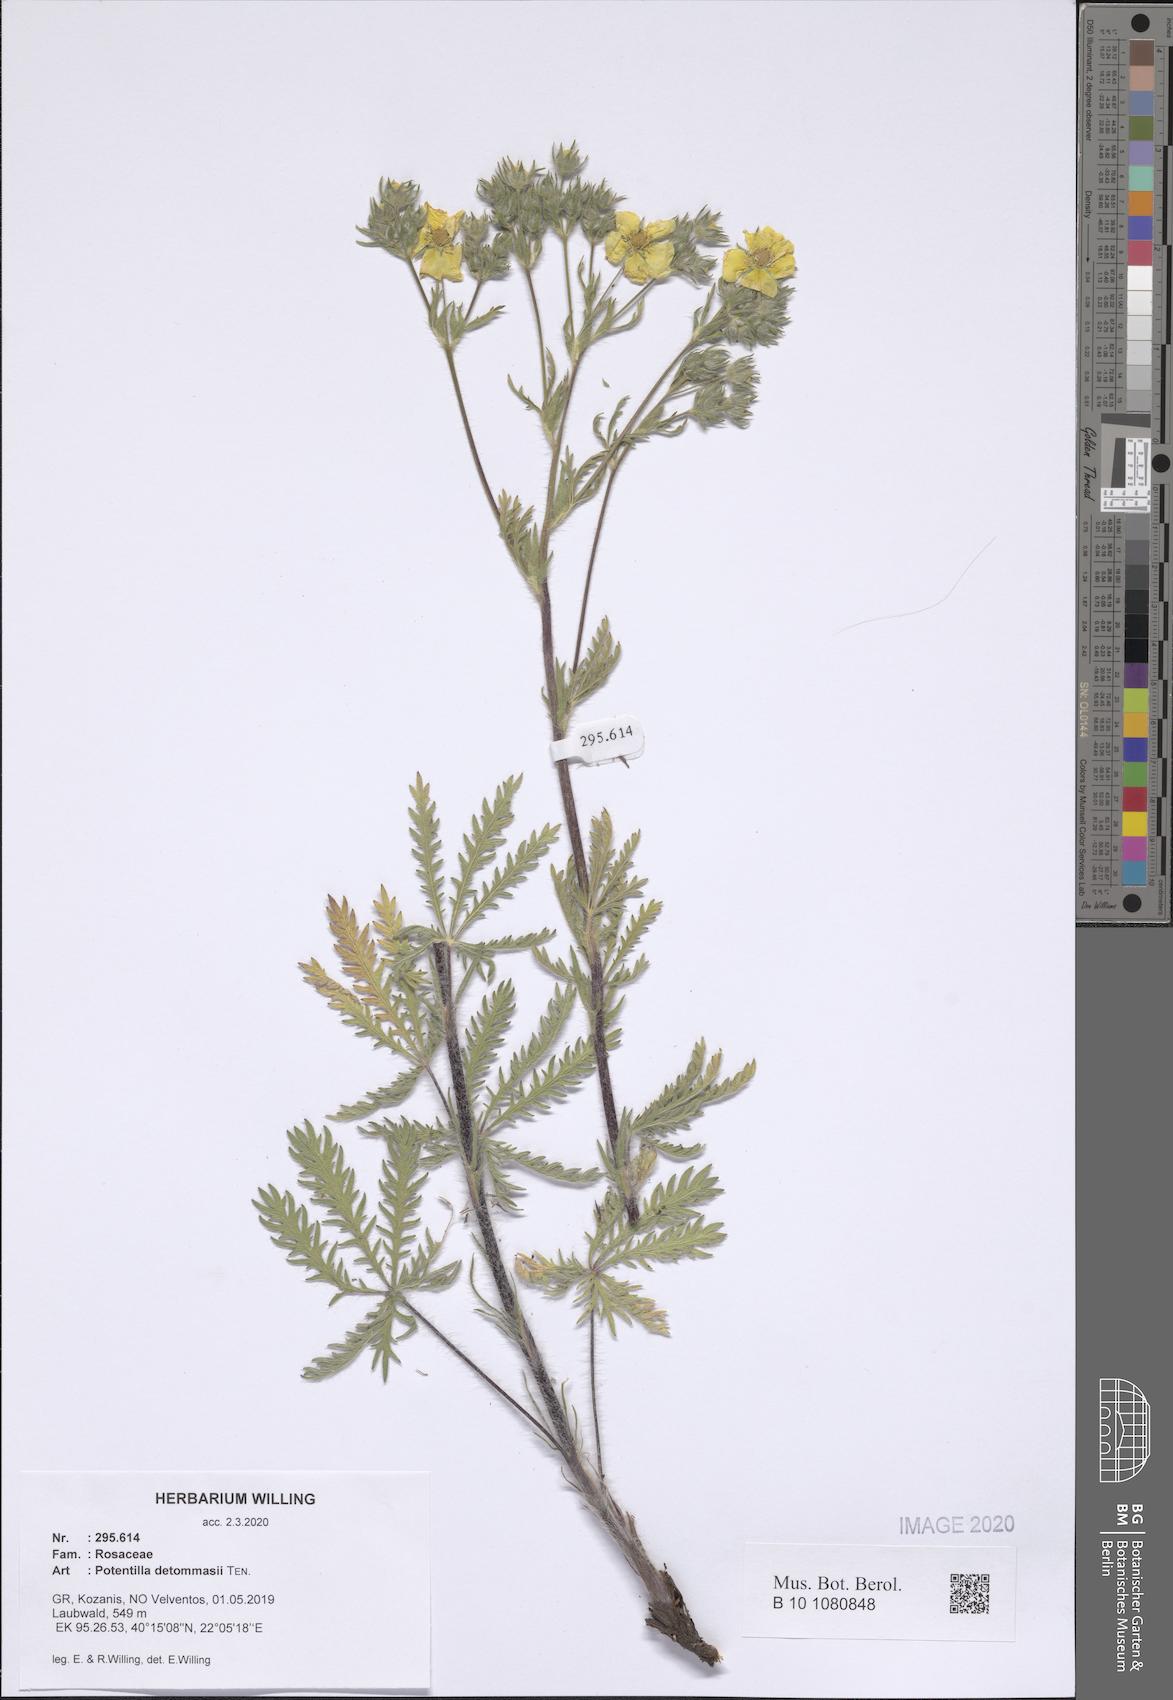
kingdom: Plantae
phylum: Tracheophyta
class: Magnoliopsida
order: Rosales
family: Rosaceae
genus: Potentilla
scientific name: Potentilla detommasii
